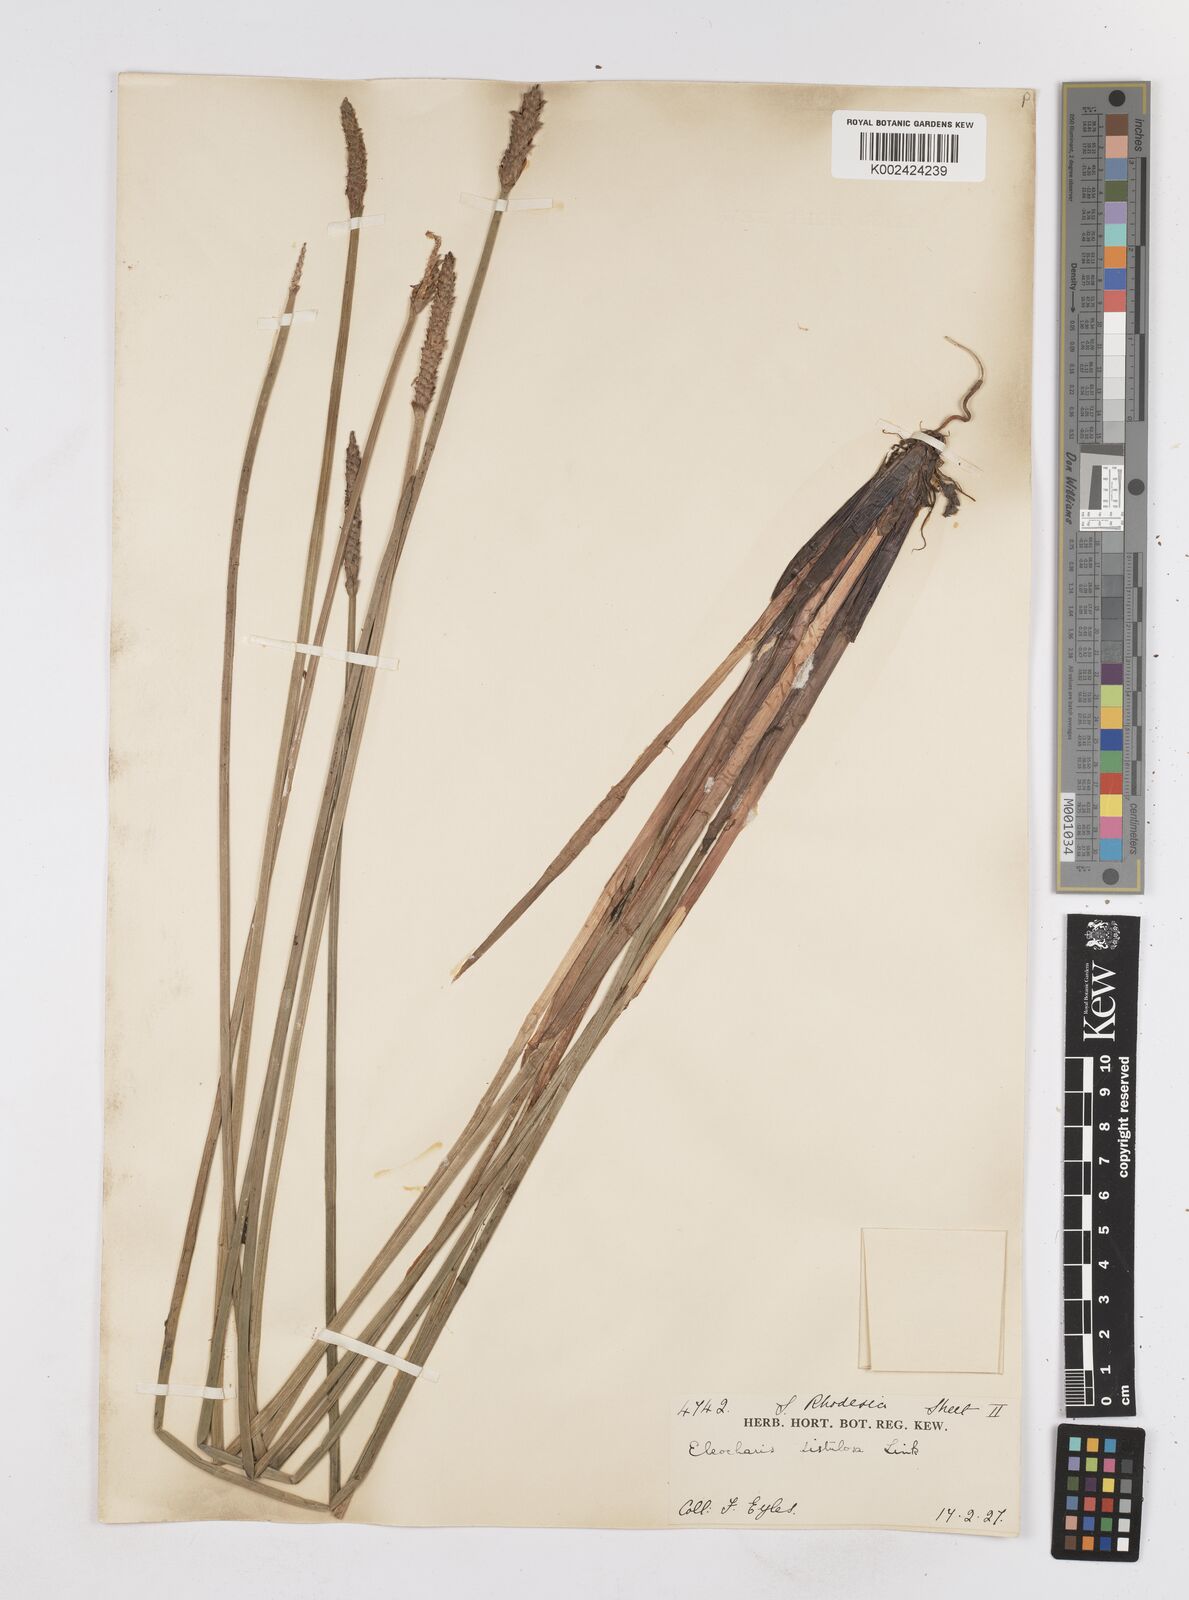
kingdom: Plantae
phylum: Tracheophyta
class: Liliopsida
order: Poales
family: Cyperaceae
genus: Eleocharis
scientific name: Eleocharis acutangula
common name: Acute spikerush
